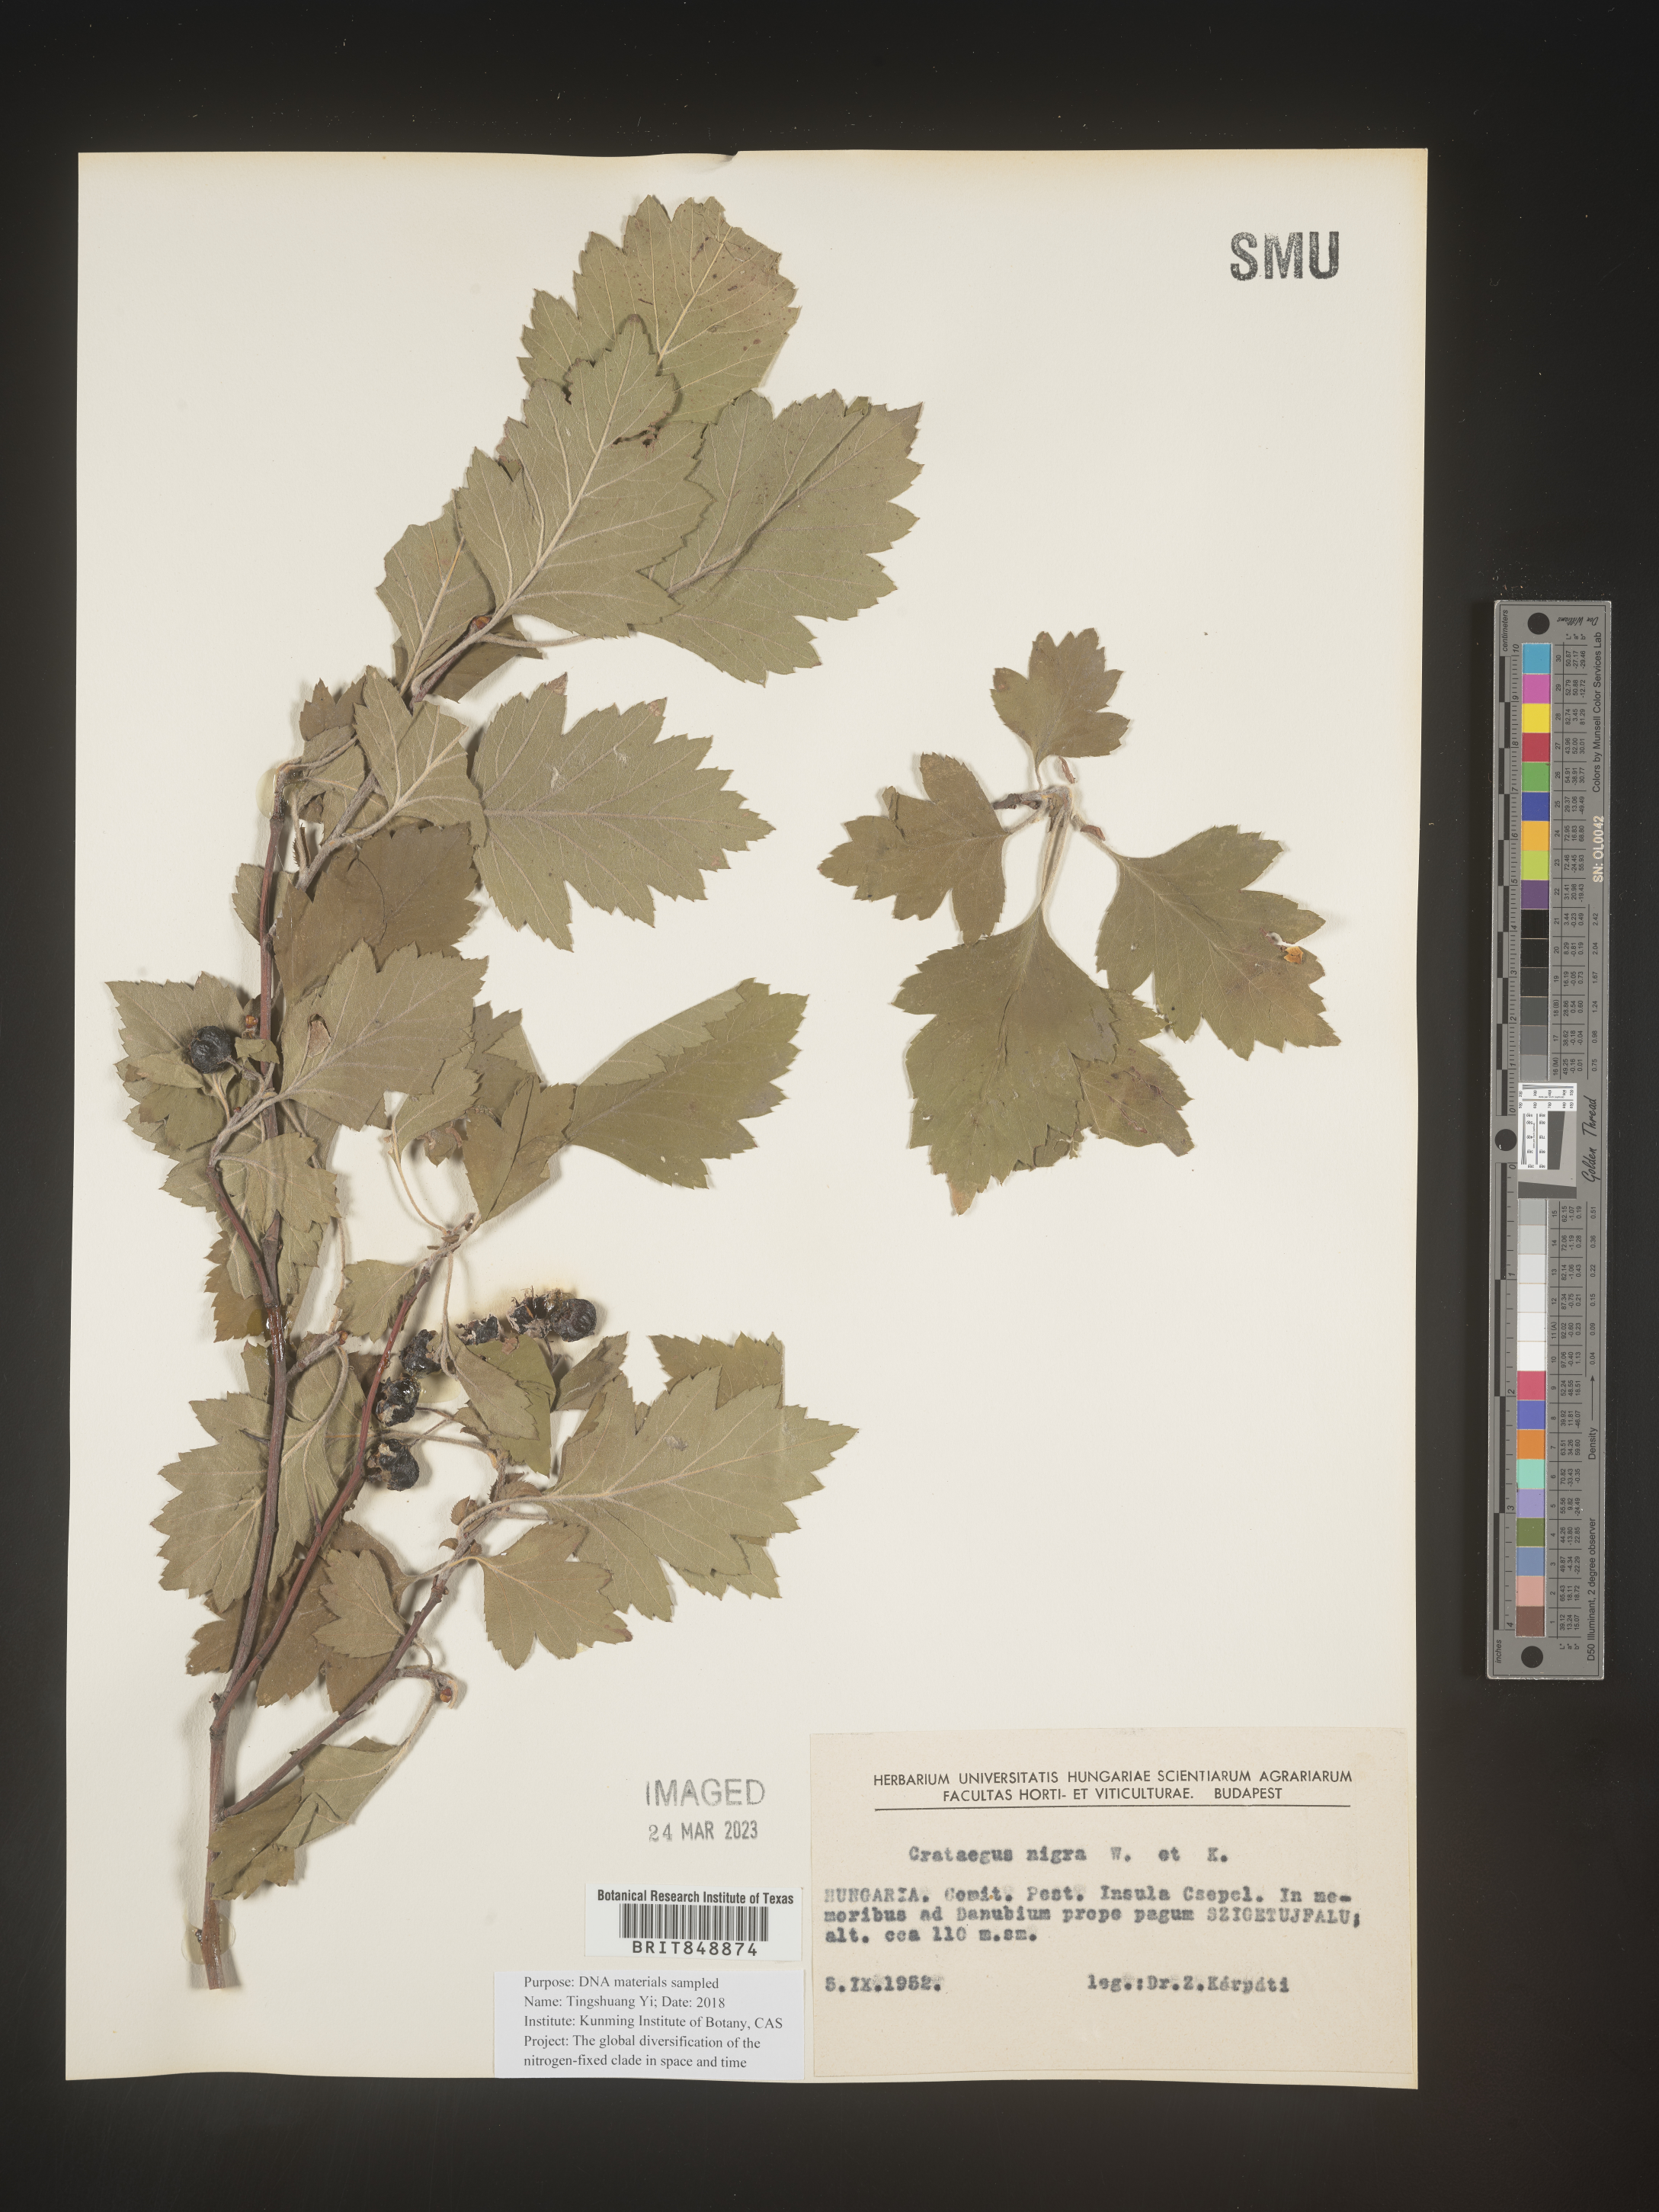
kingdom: Plantae
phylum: Tracheophyta
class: Magnoliopsida
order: Rosales
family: Rosaceae
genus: Crataegus
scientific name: Crataegus
